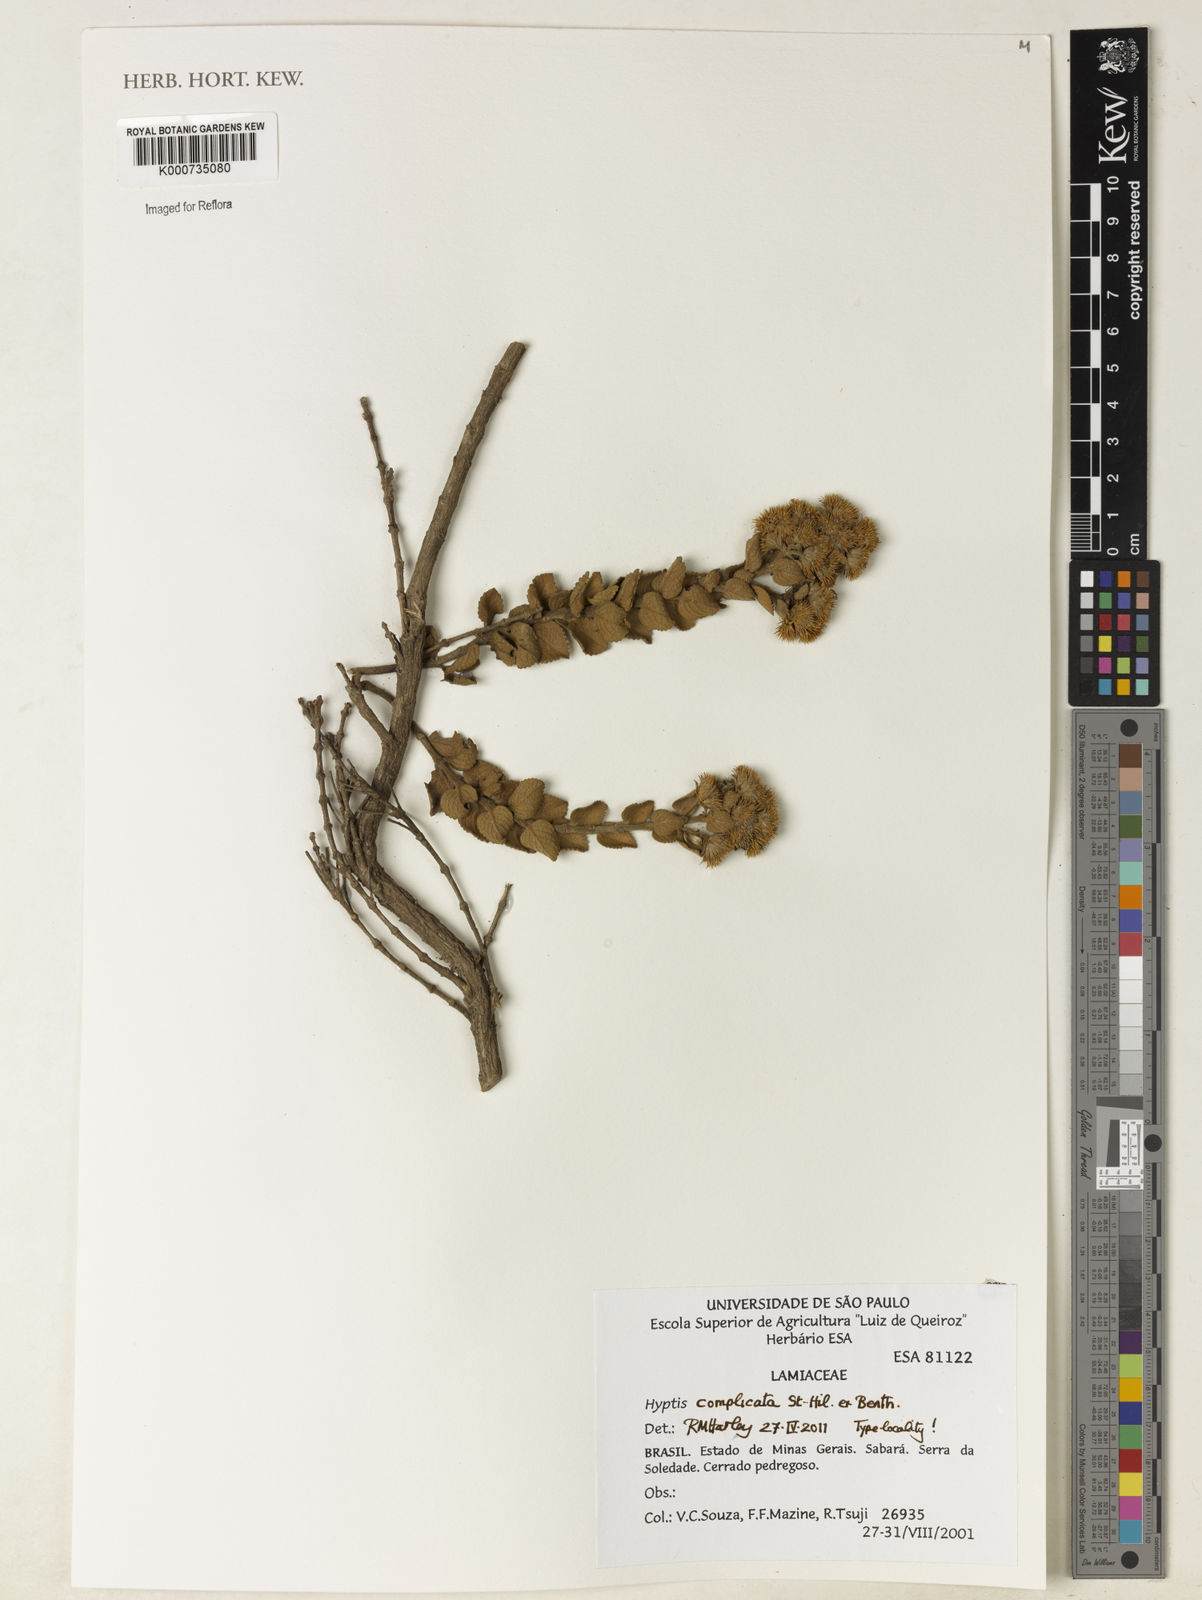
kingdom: Plantae
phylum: Tracheophyta
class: Magnoliopsida
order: Lamiales
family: Lamiaceae
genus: Hyptis
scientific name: Hyptis
